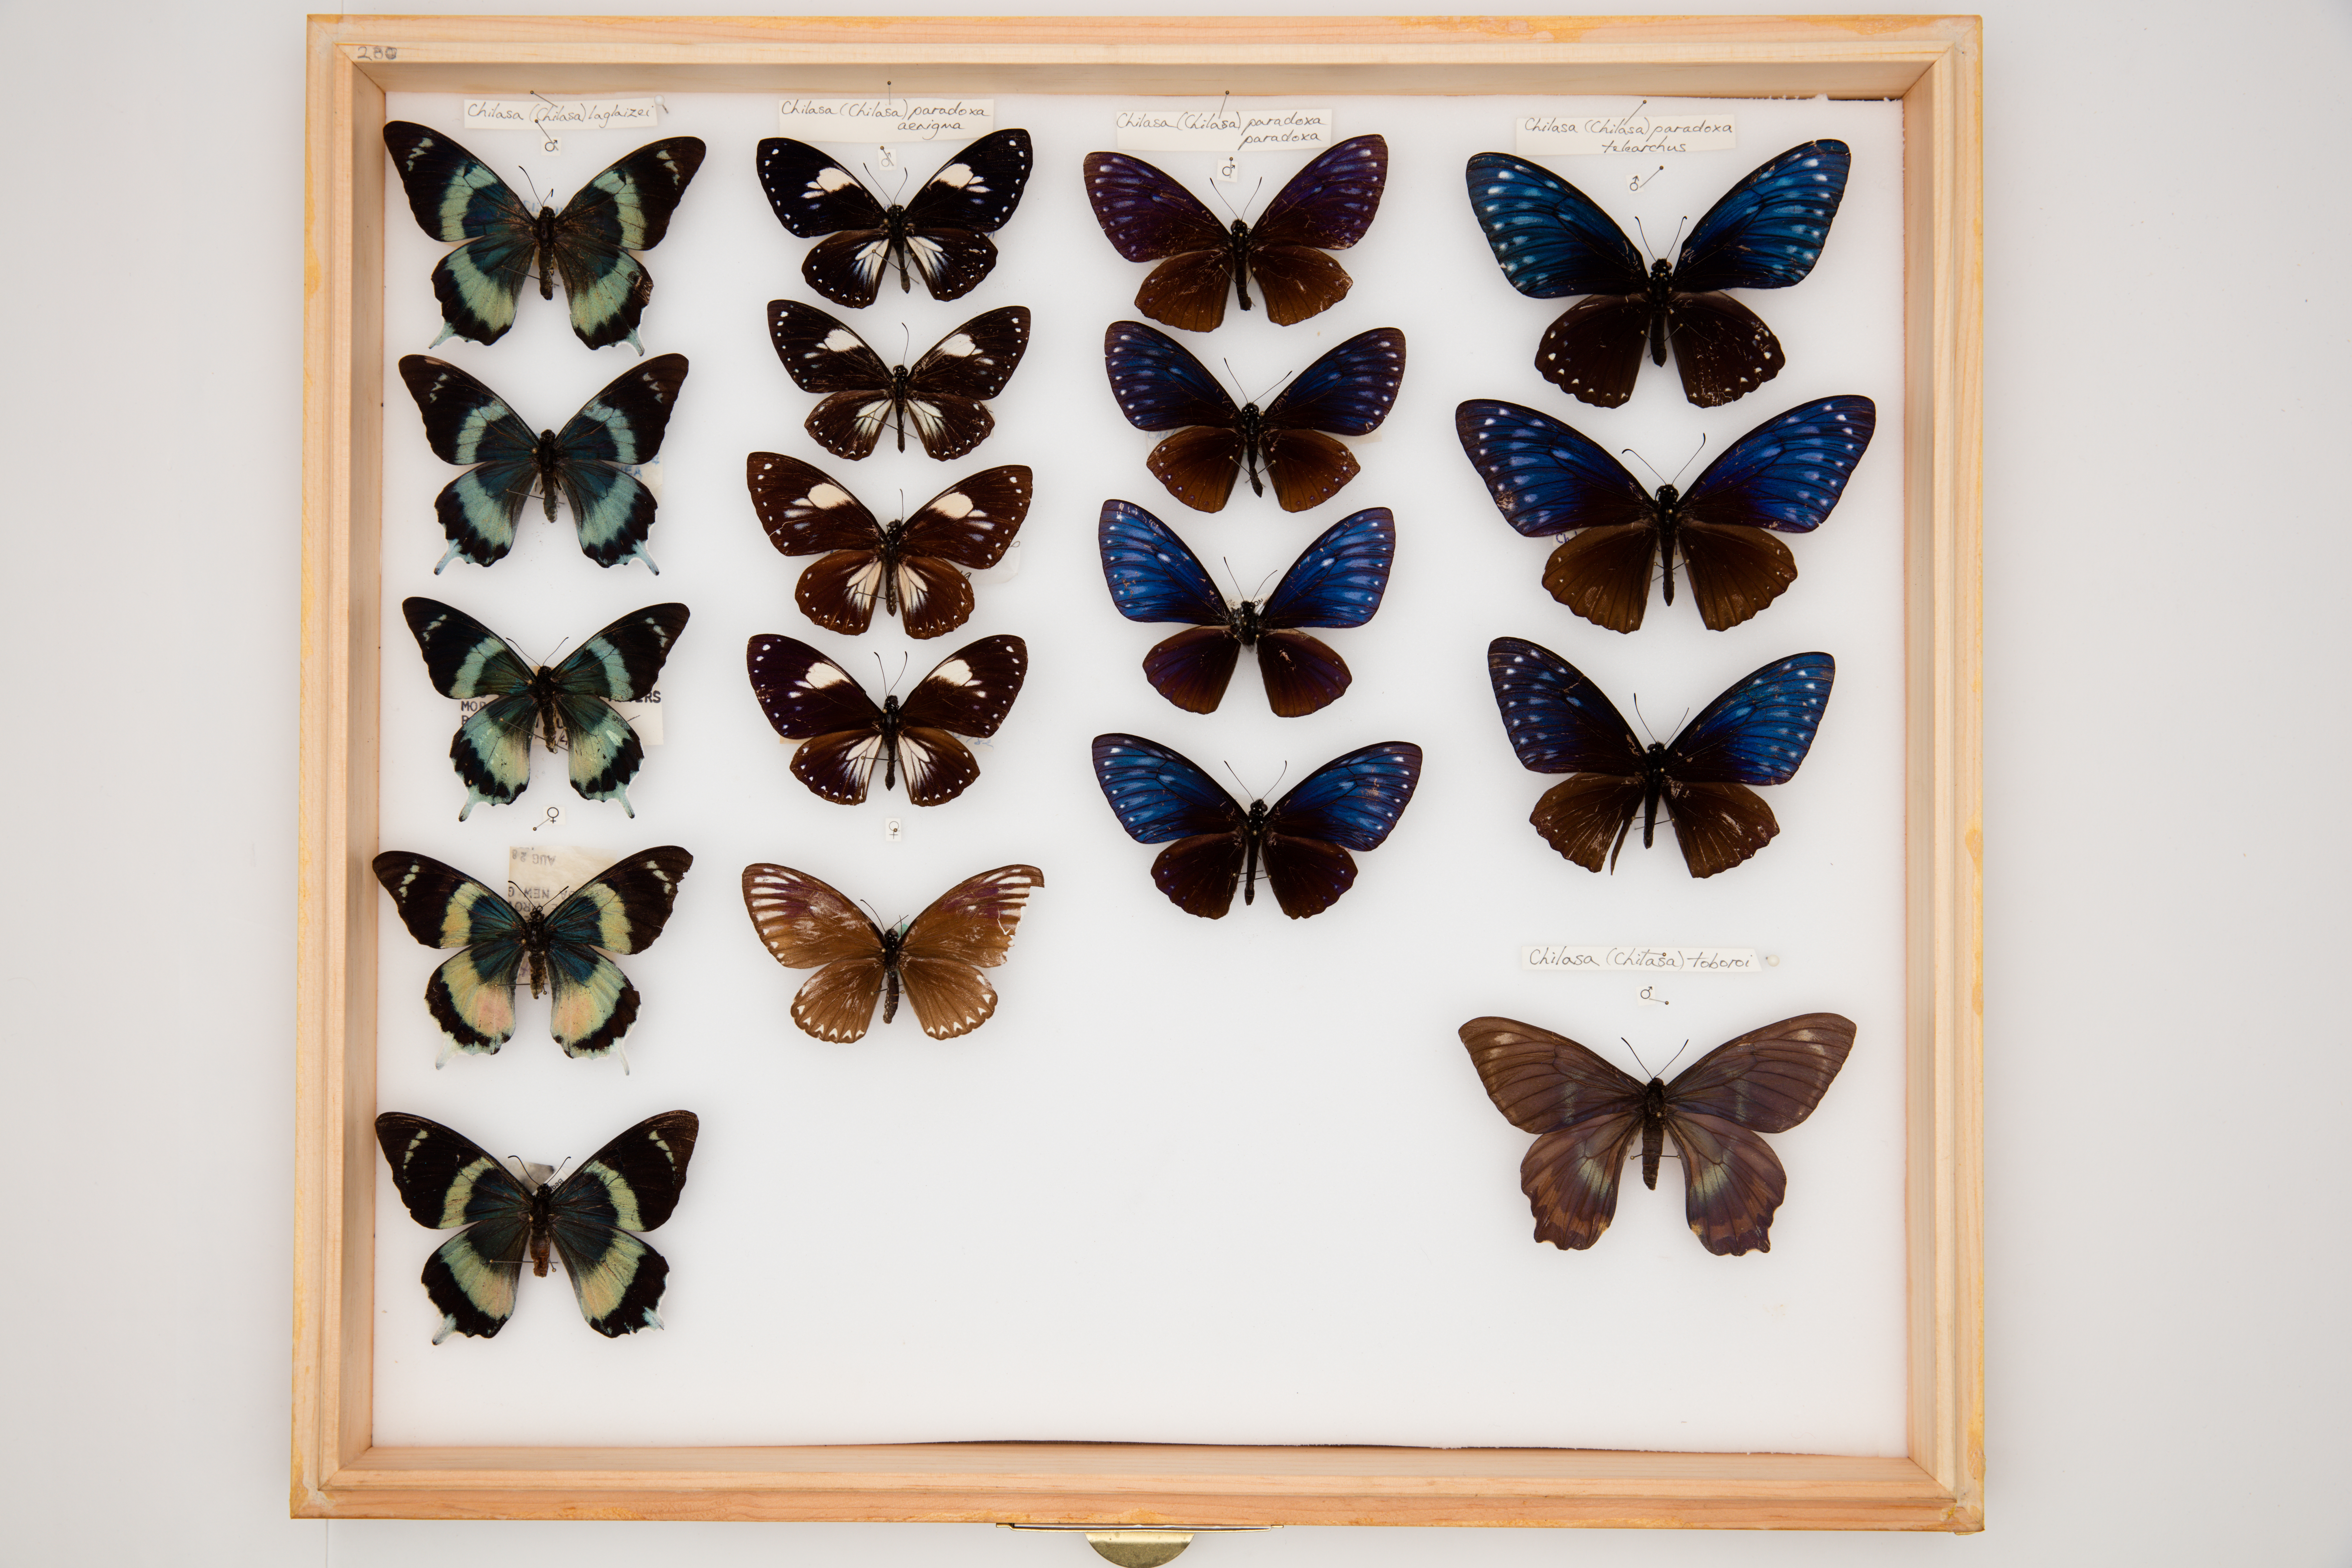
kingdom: Animalia
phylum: Arthropoda
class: Insecta
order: Lepidoptera
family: Papilionidae
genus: Chilasa
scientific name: Chilasa laglaizei
